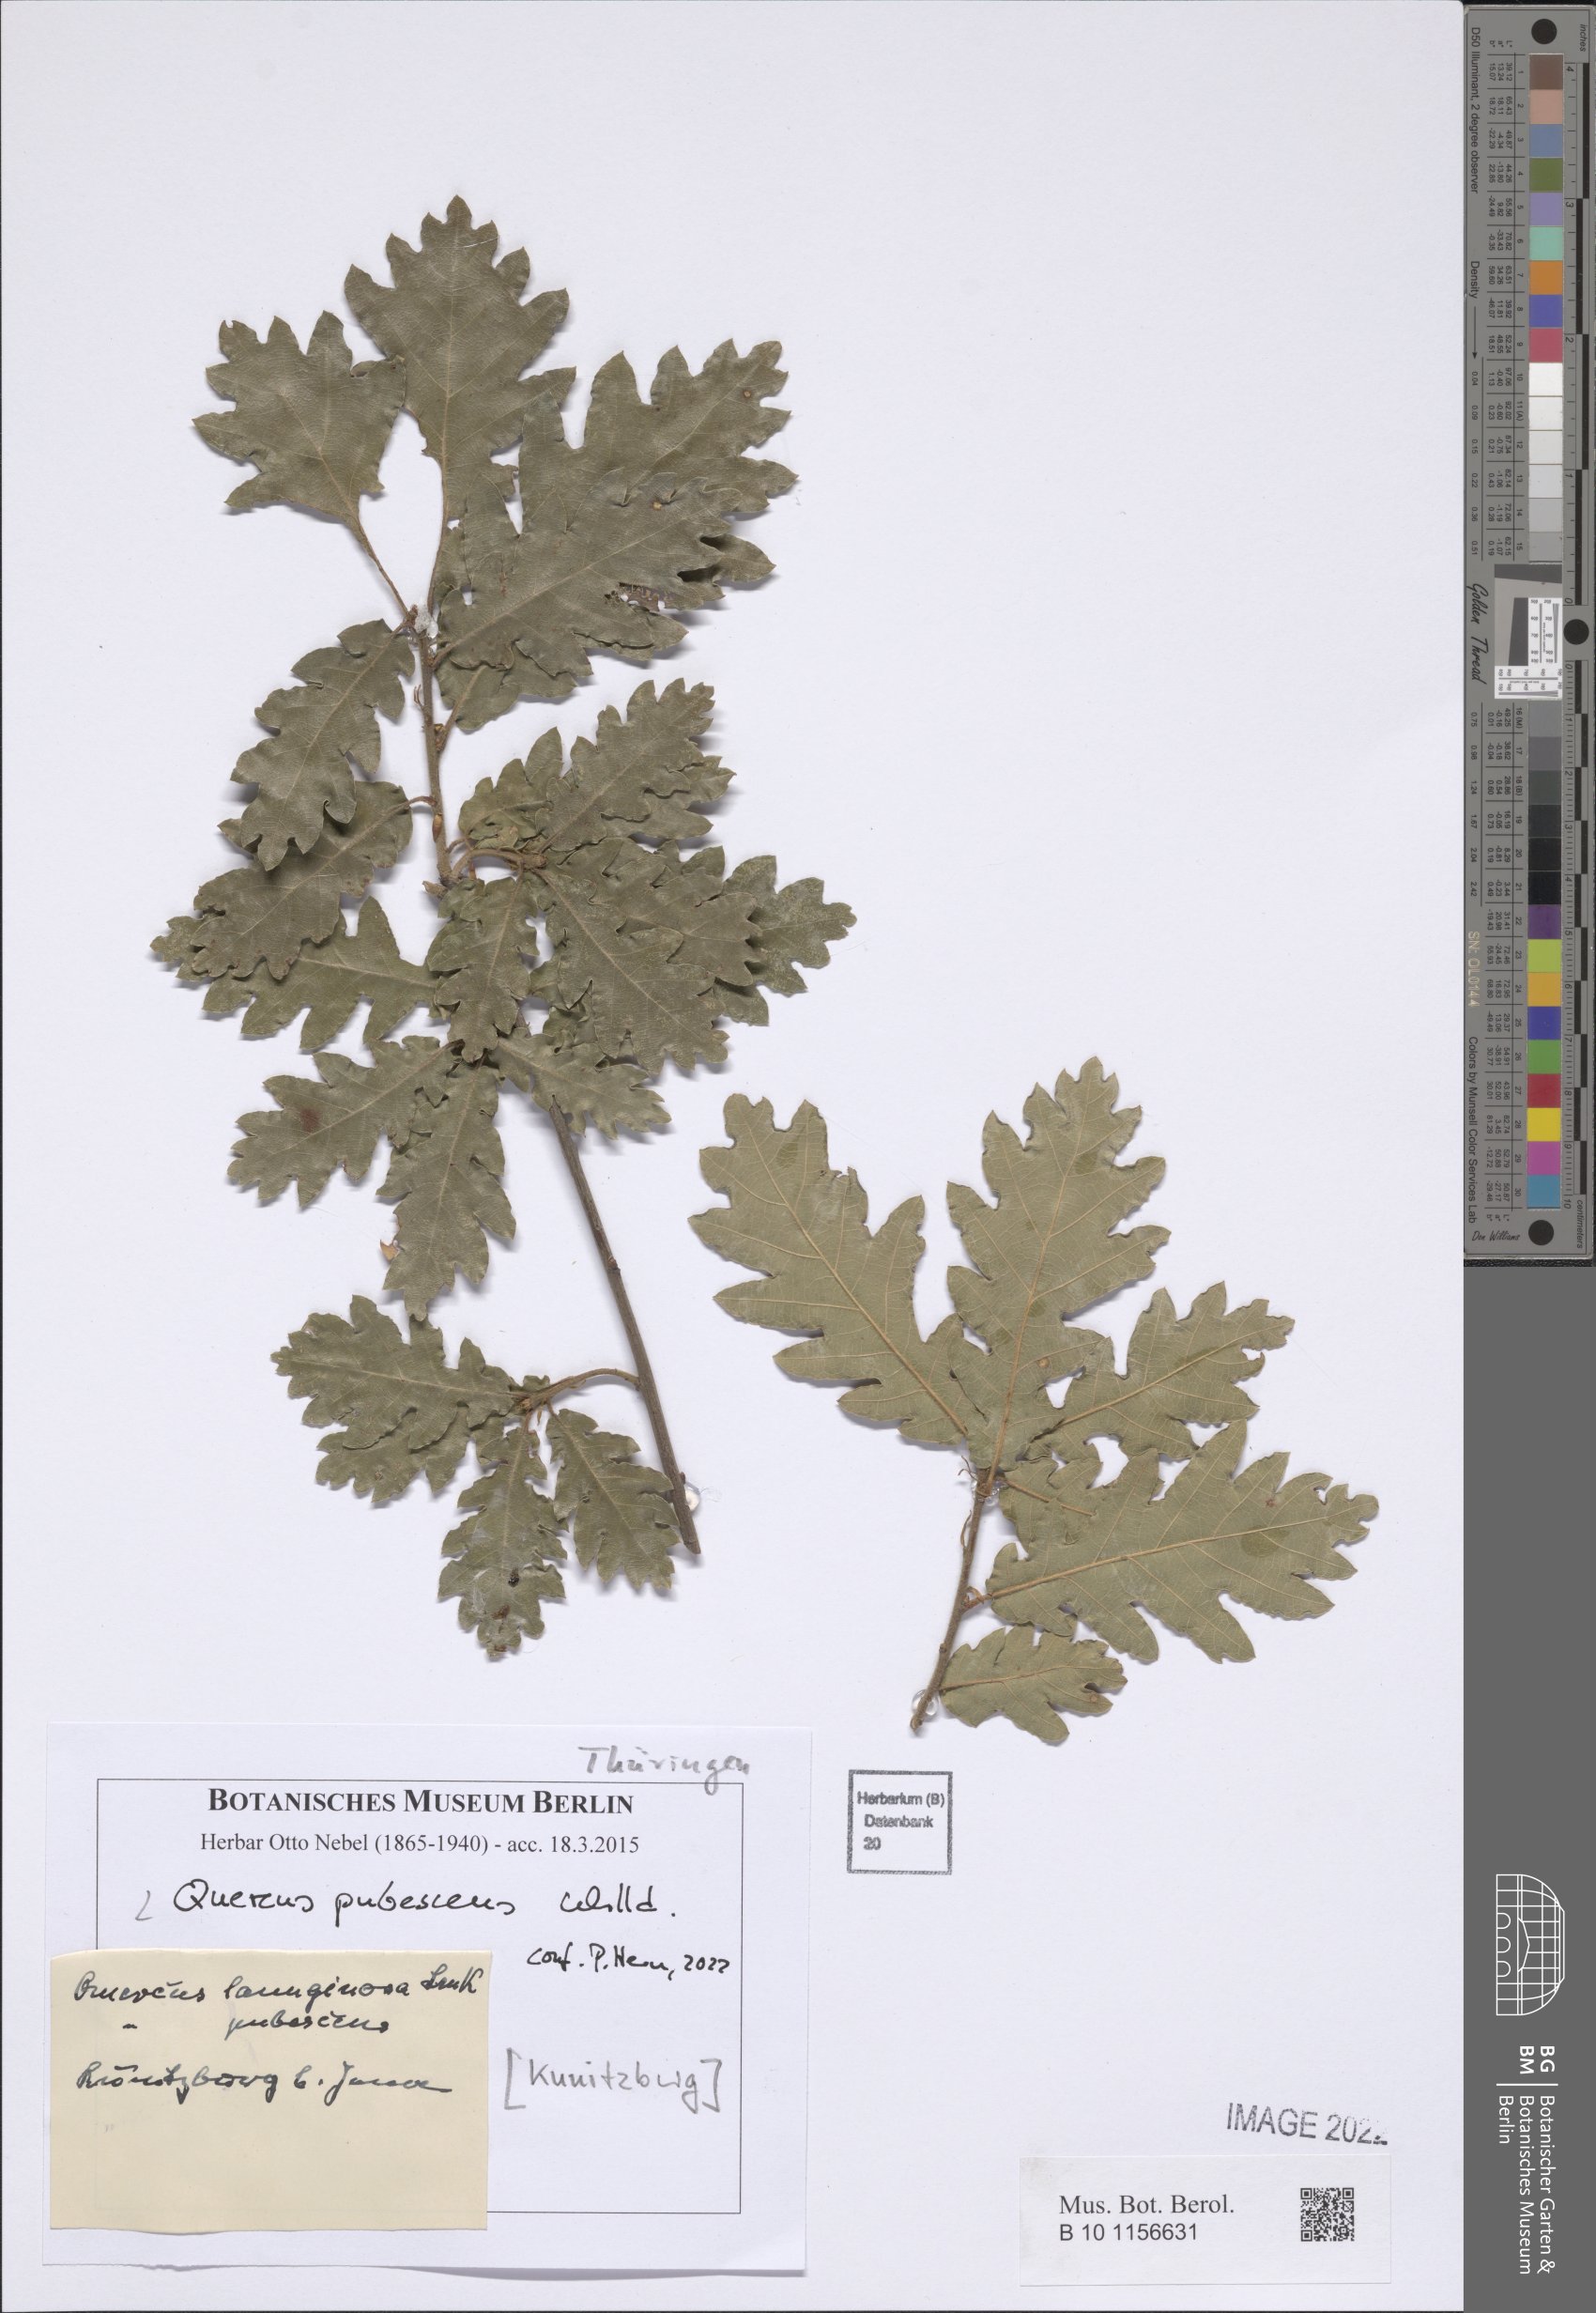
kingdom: Plantae
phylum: Tracheophyta
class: Magnoliopsida
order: Fagales
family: Fagaceae
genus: Quercus
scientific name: Quercus pubescens
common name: Downy oak
